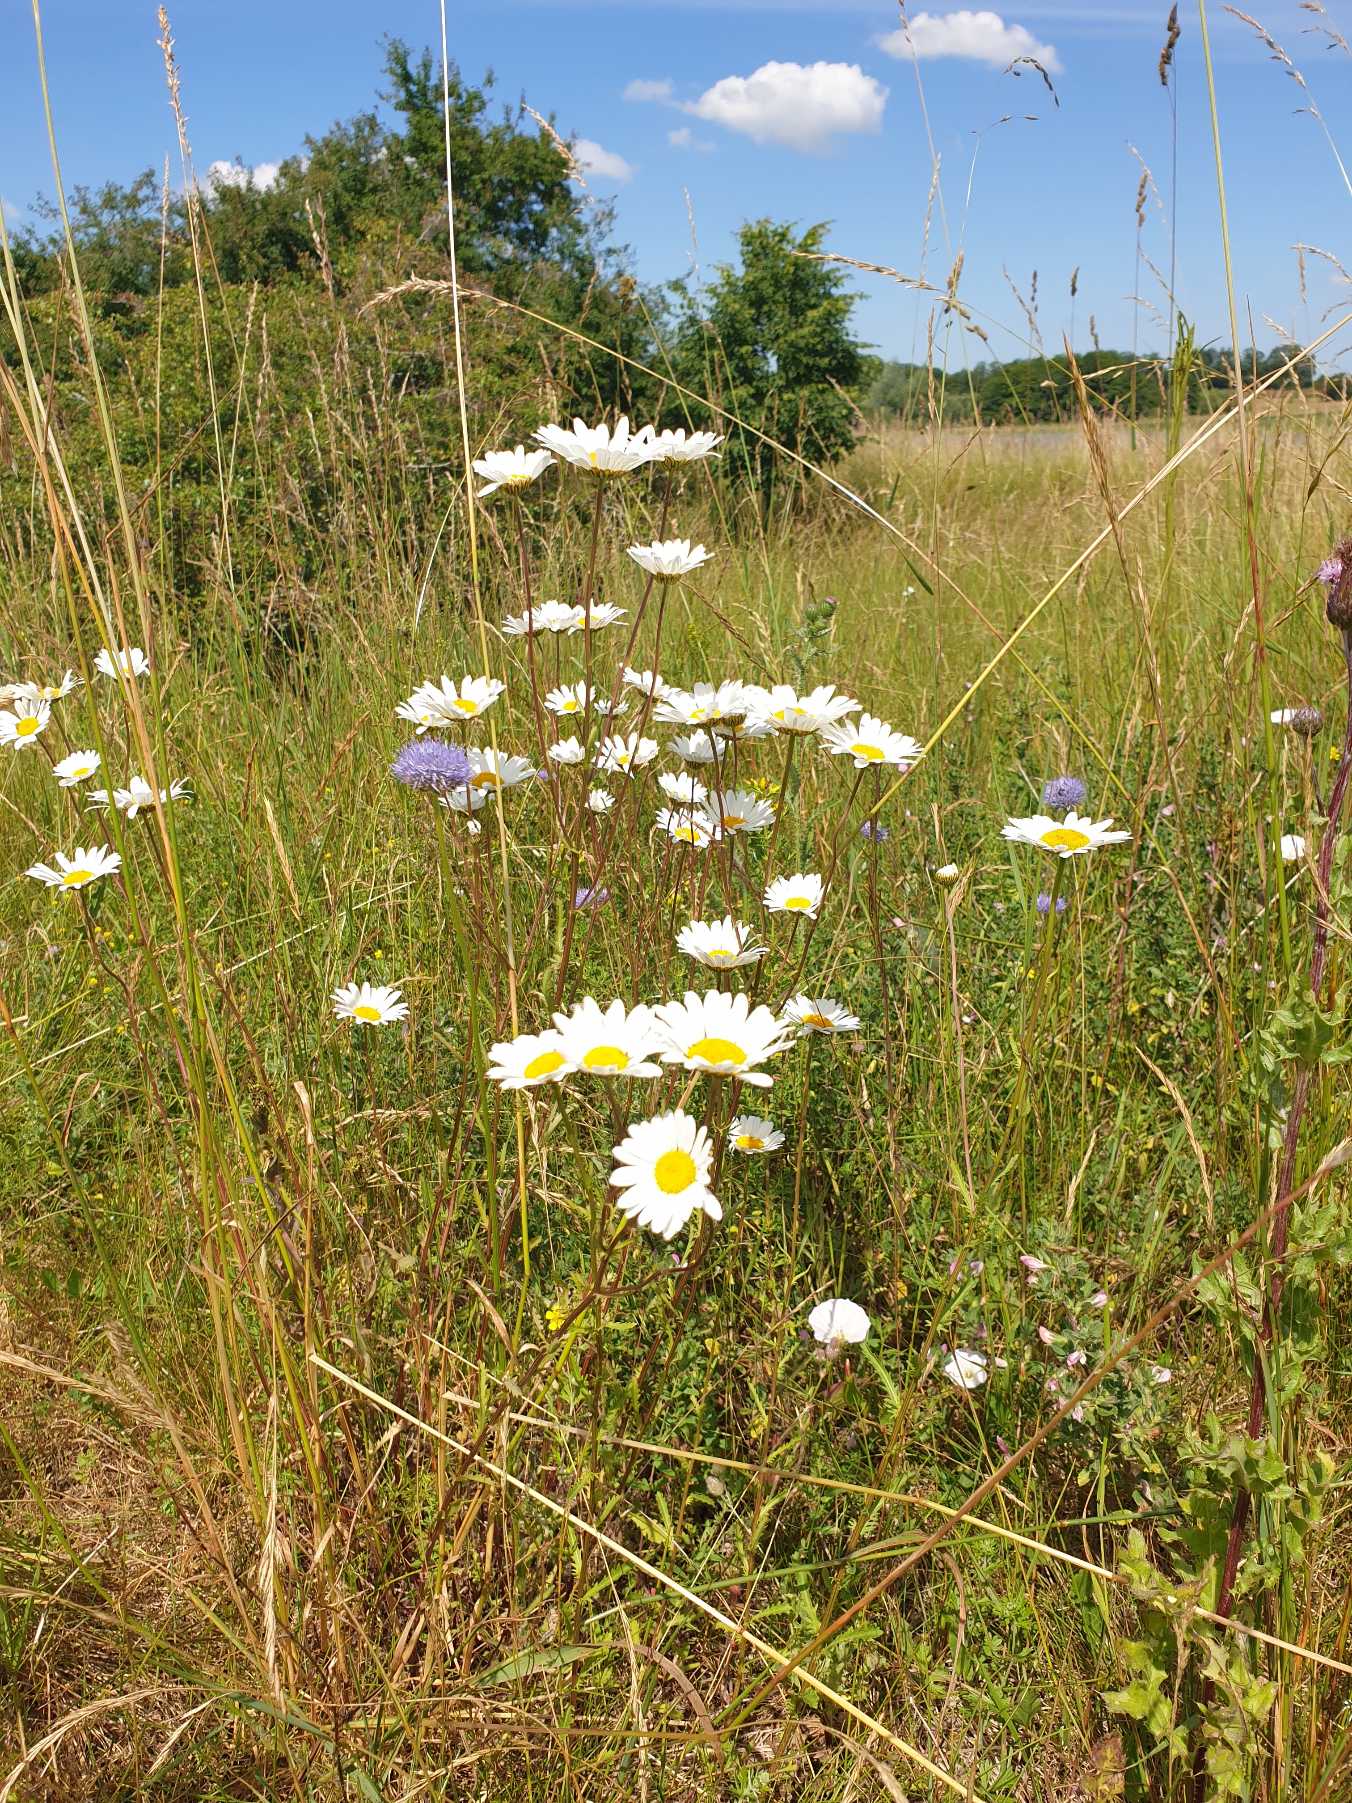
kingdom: Plantae
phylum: Tracheophyta
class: Magnoliopsida
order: Asterales
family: Asteraceae
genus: Leucanthemum
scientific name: Leucanthemum vulgare
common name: Hvid okseøje
